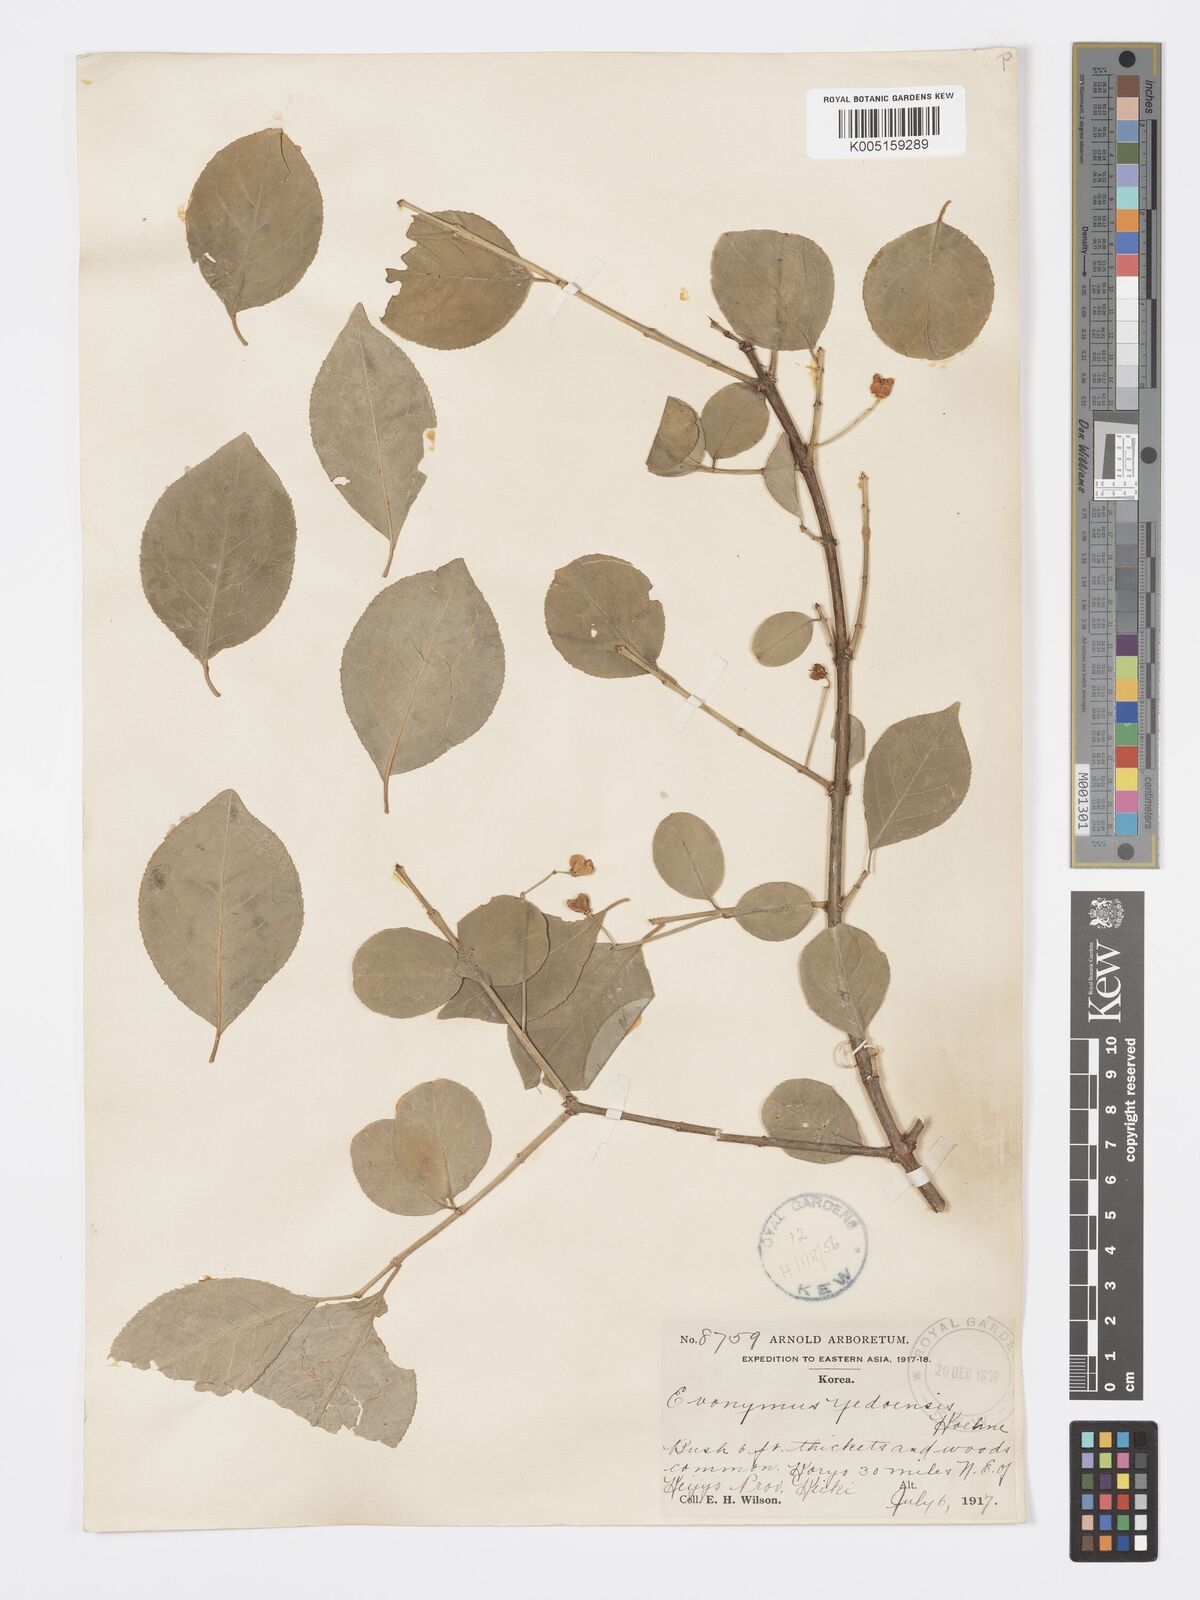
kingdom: Plantae
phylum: Tracheophyta
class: Magnoliopsida
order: Celastrales
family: Celastraceae
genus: Euonymus
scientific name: Euonymus hamiltonianus
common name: Hamilton's spindletree
